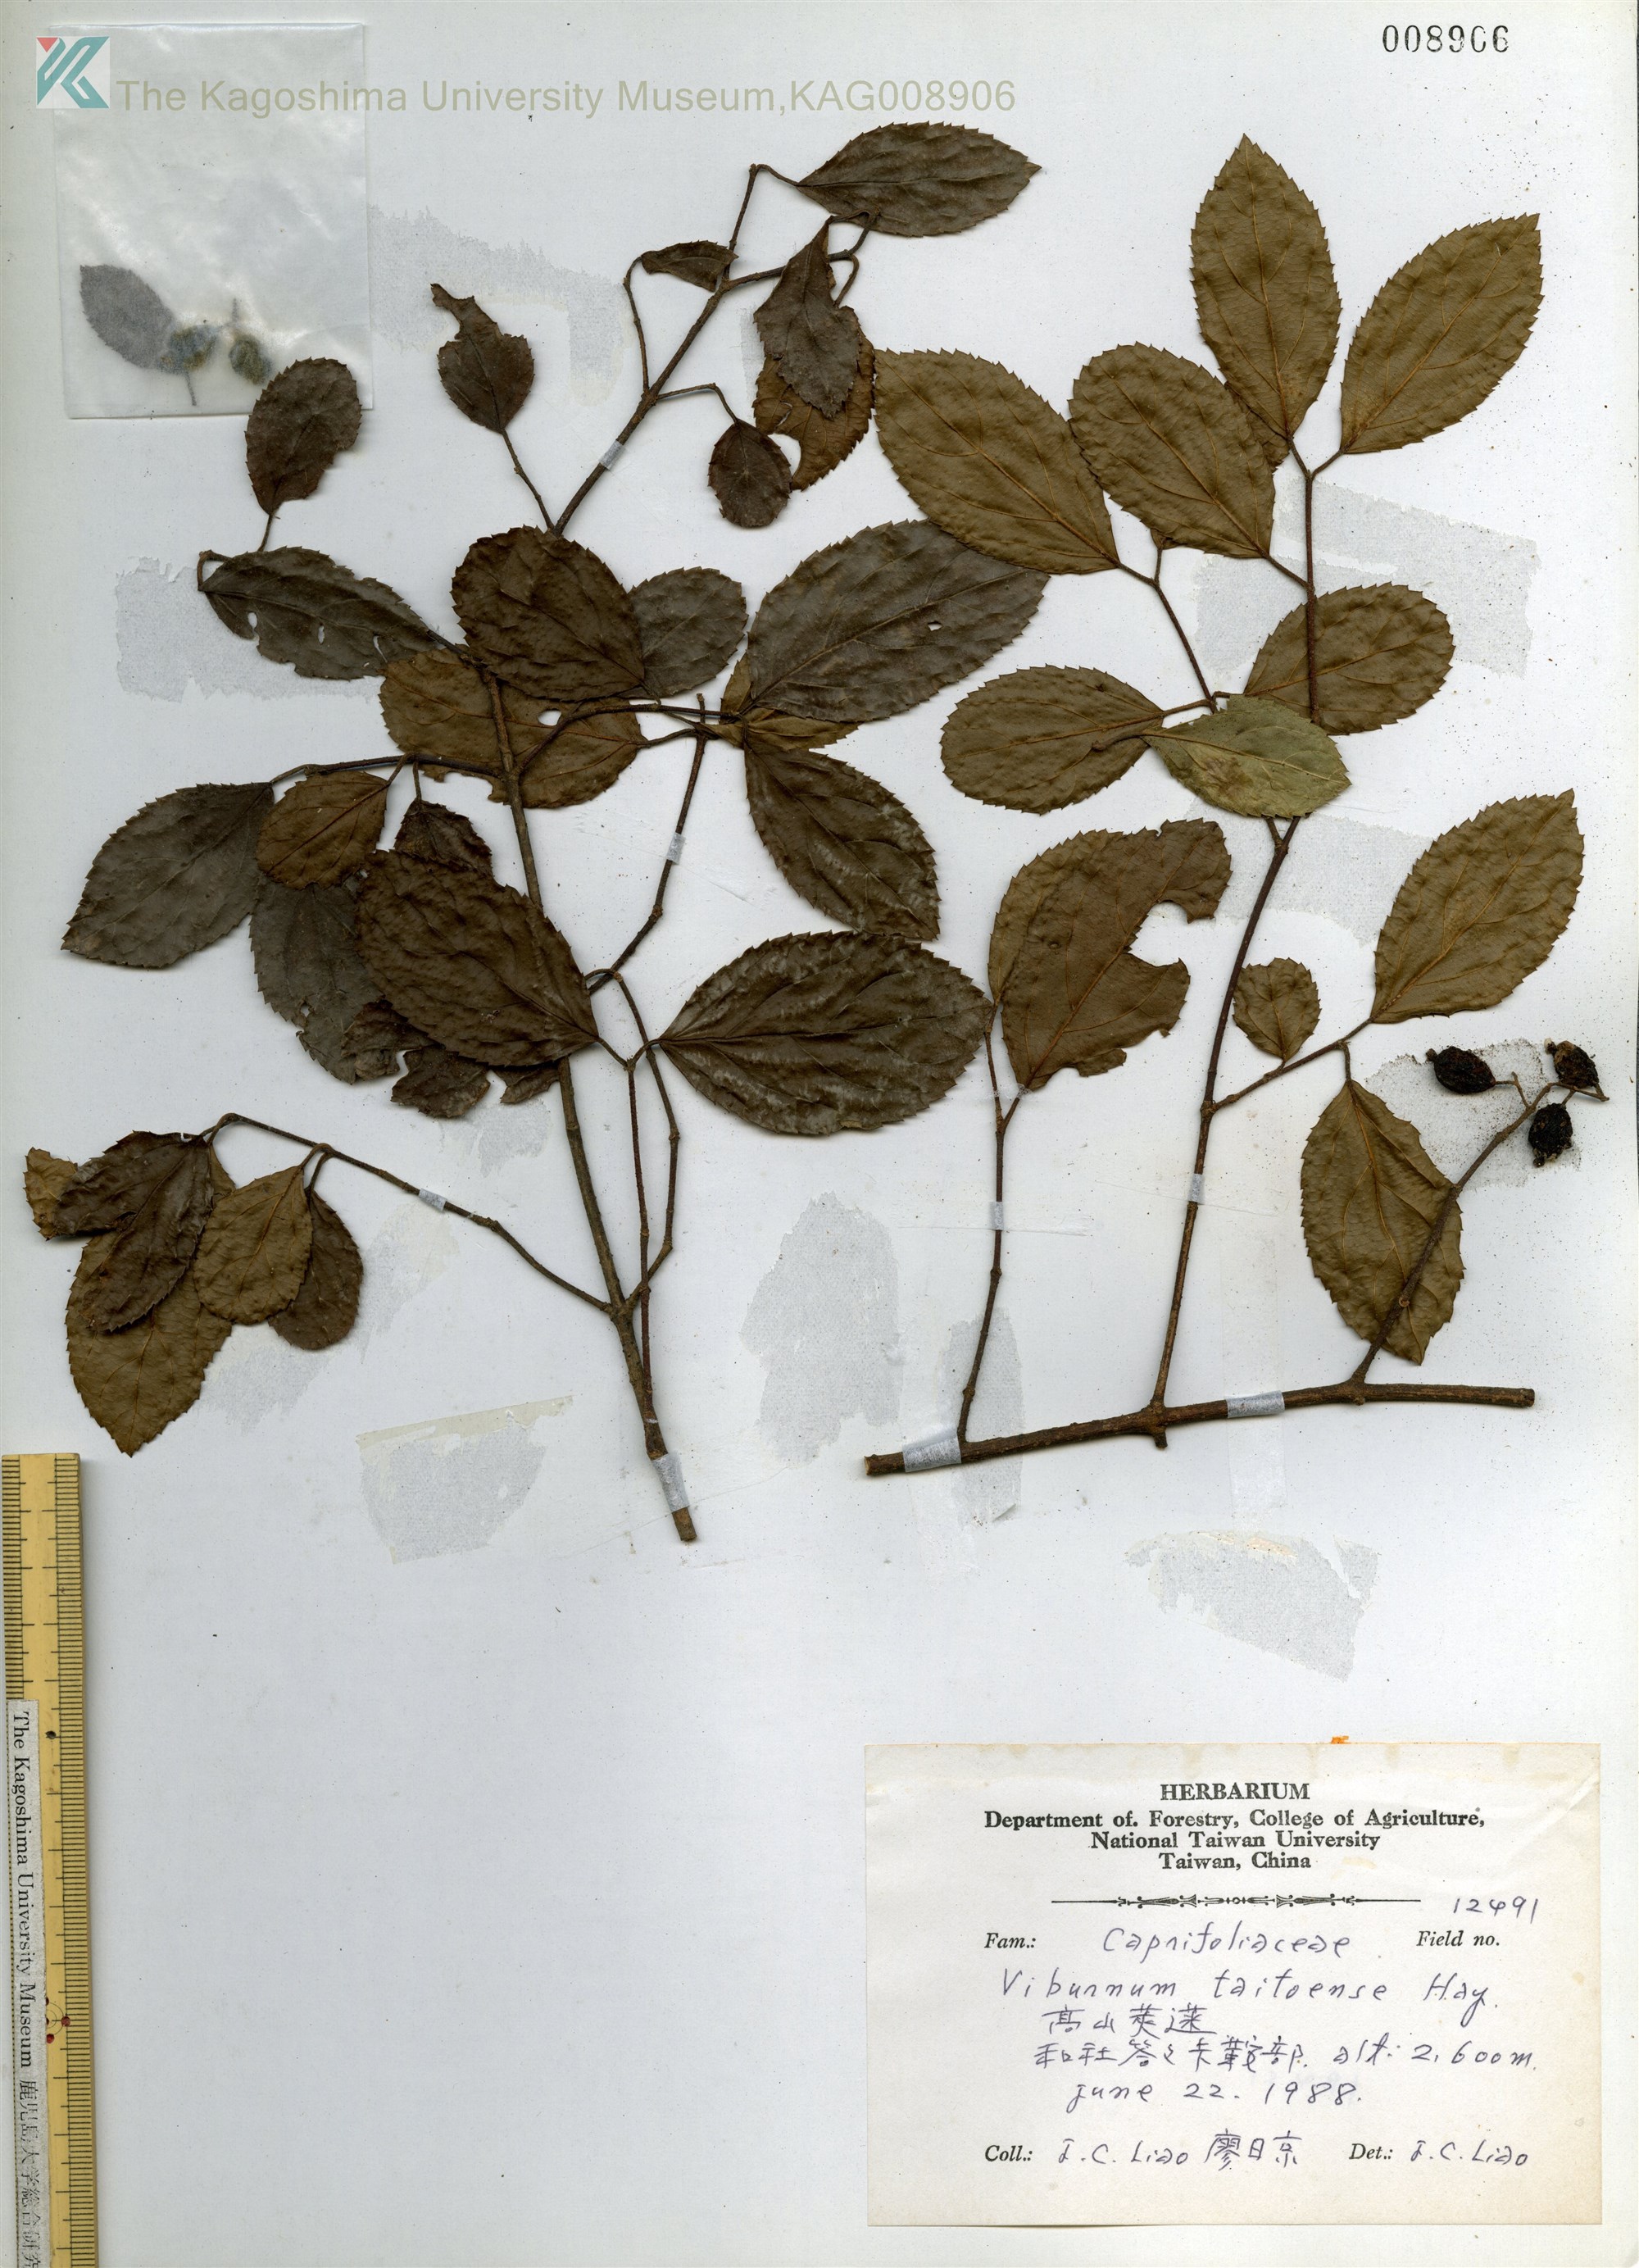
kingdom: Plantae
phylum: Tracheophyta
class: Magnoliopsida
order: Dipsacales
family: Viburnaceae
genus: Viburnum
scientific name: Viburnum taitoense
